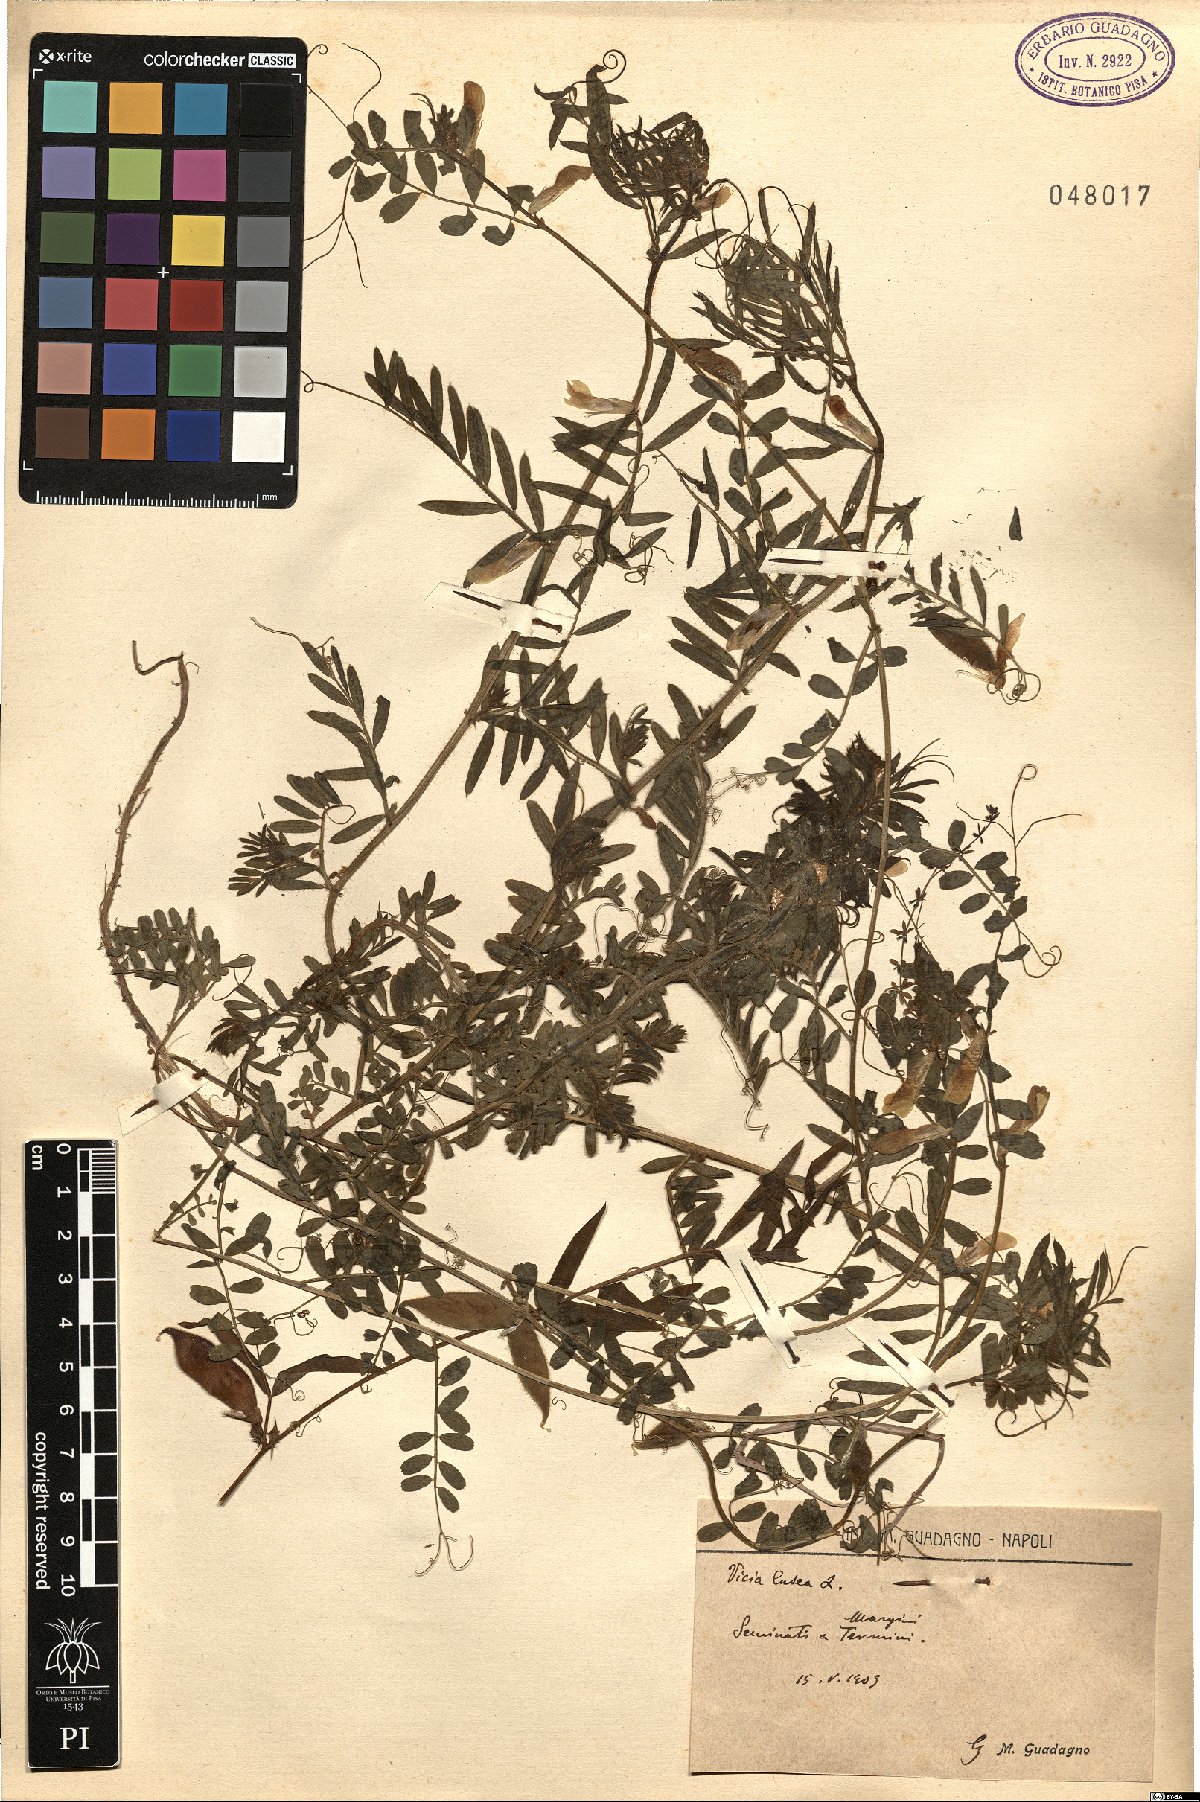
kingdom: Plantae
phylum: Tracheophyta
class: Magnoliopsida
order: Fabales
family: Fabaceae
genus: Vicia
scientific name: Vicia lutea
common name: Smooth yellow vetch
